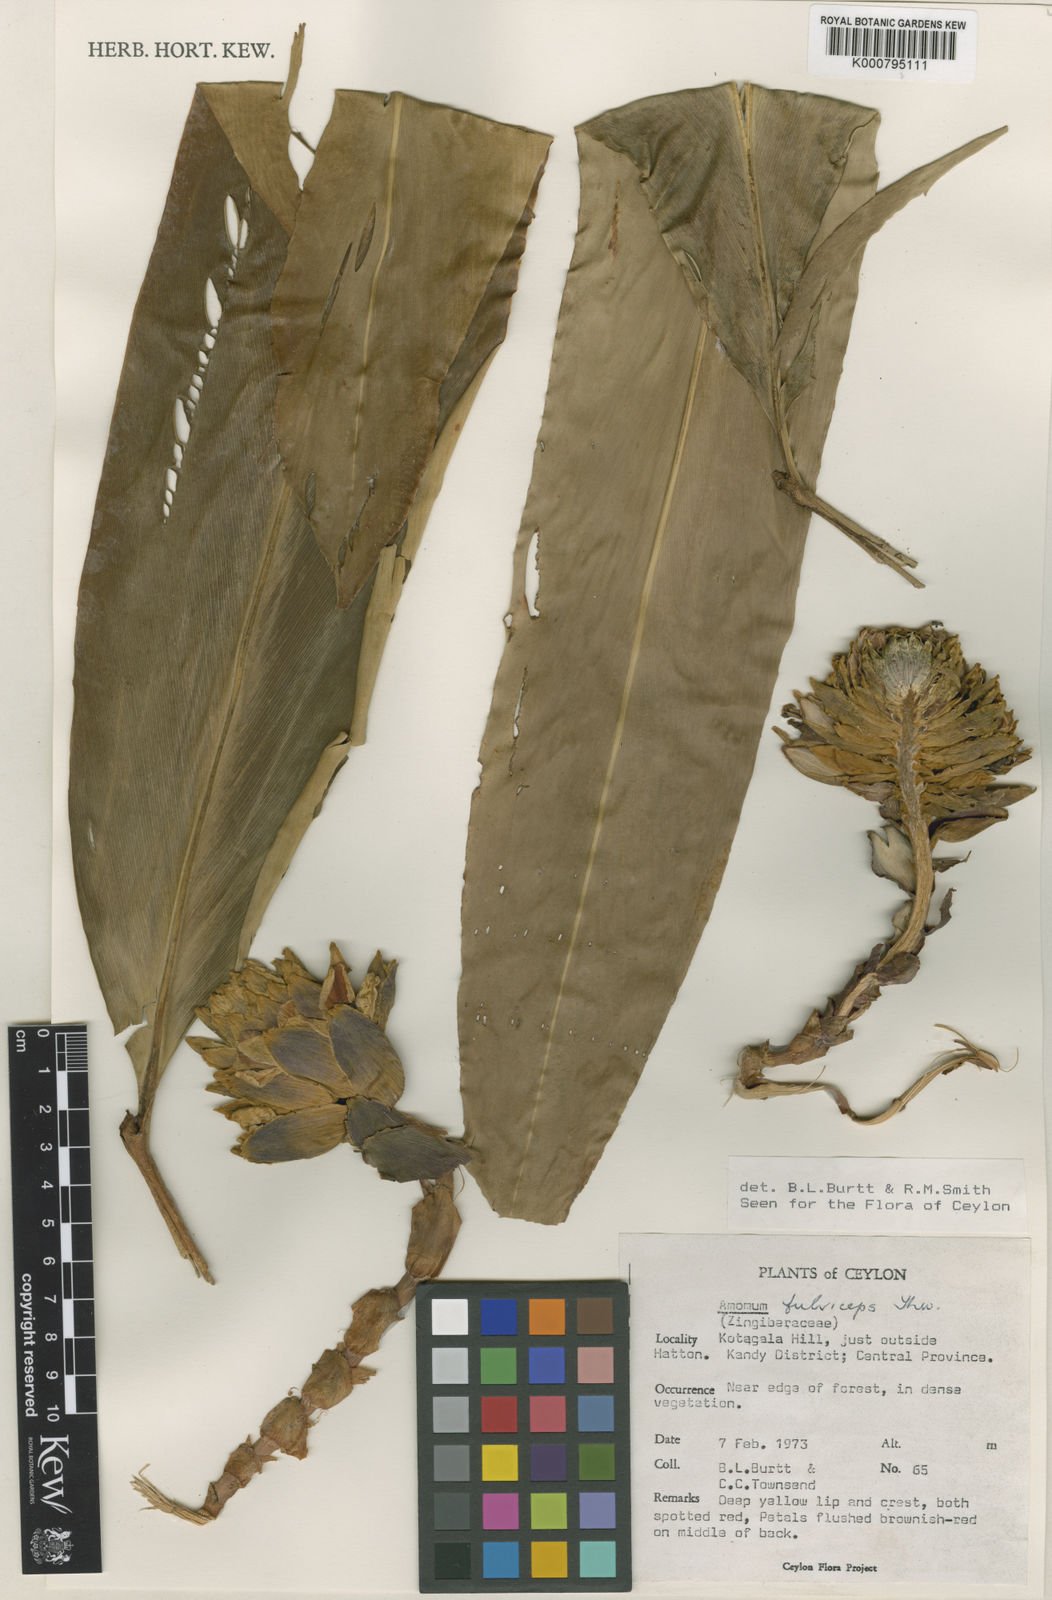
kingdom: Plantae
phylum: Tracheophyta
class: Liliopsida
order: Zingiberales
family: Zingiberaceae
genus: Meistera
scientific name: Meistera fulviceps
